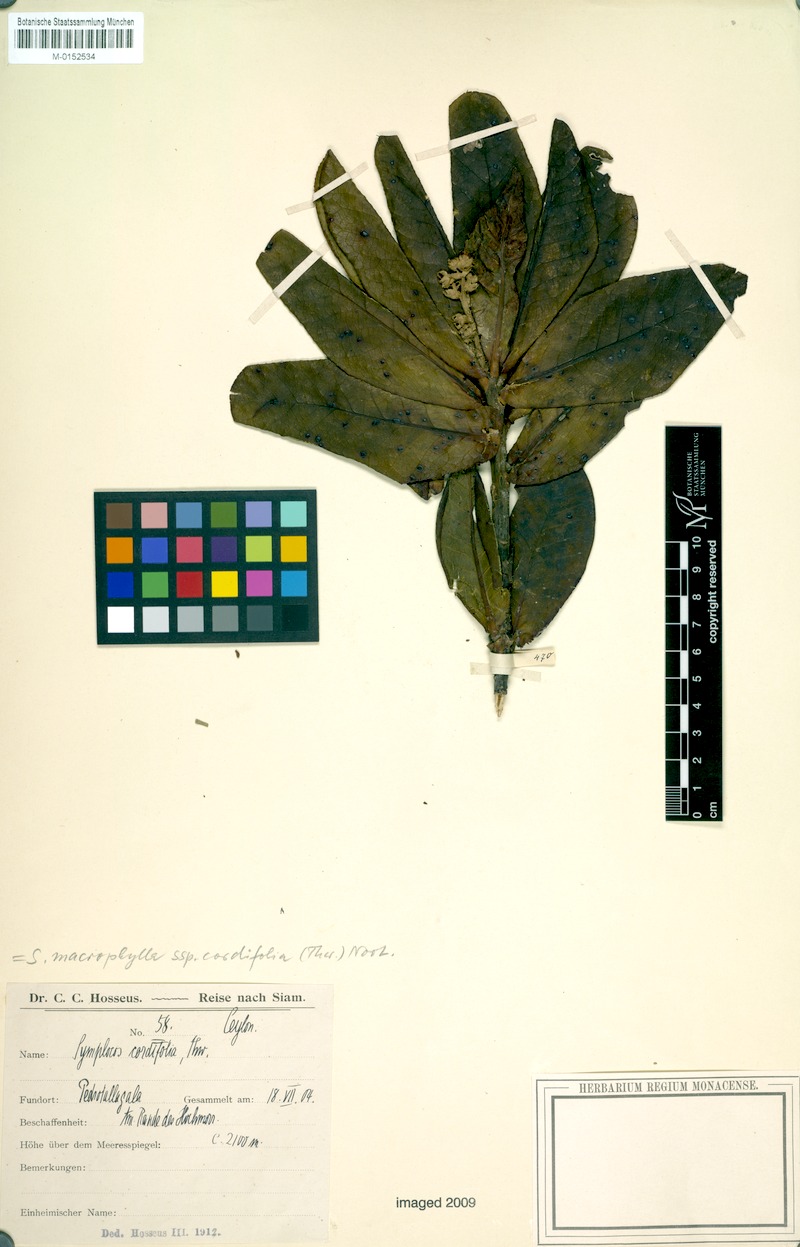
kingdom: Plantae
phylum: Tracheophyta
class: Magnoliopsida
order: Ericales
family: Symplocaceae
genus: Symplocos
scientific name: Symplocos cordifolia
